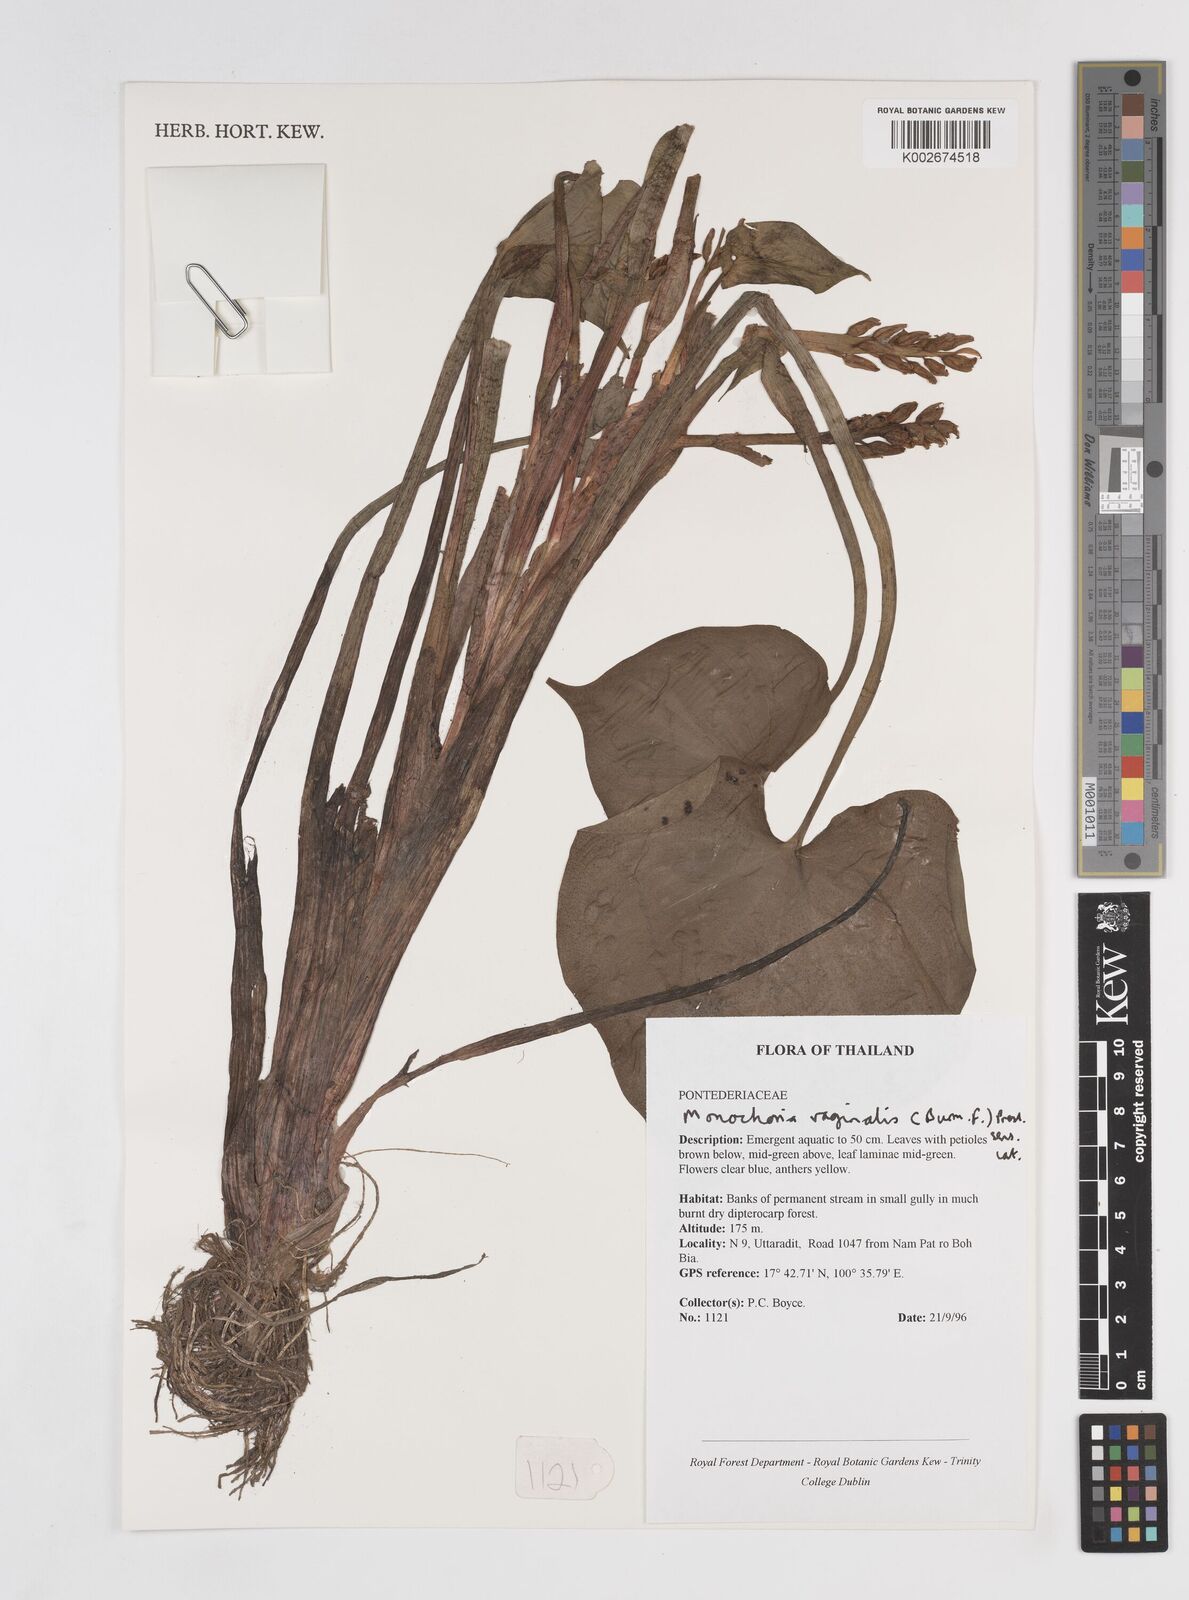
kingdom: Plantae
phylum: Tracheophyta
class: Liliopsida
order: Commelinales
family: Pontederiaceae
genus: Pontederia
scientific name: Pontederia vaginalis
